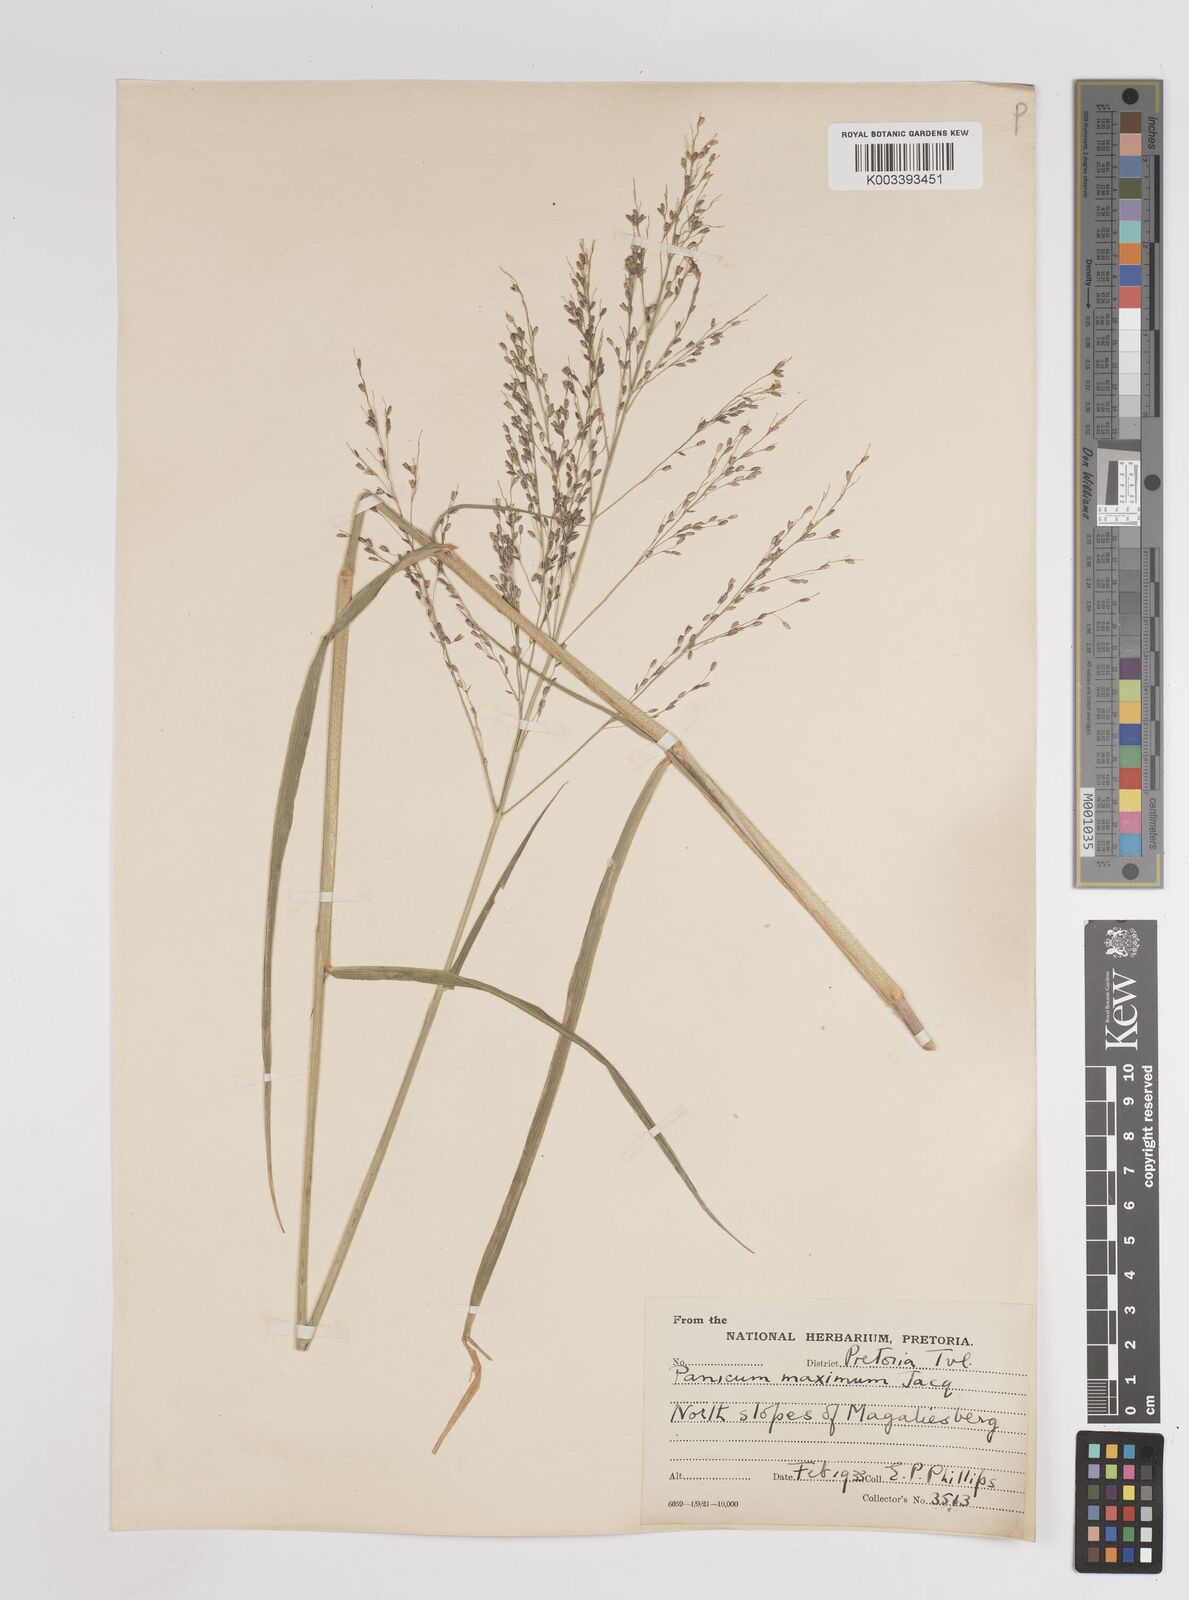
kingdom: Plantae
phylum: Tracheophyta
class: Liliopsida
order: Poales
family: Poaceae
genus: Megathyrsus
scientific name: Megathyrsus maximus
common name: Guineagrass
